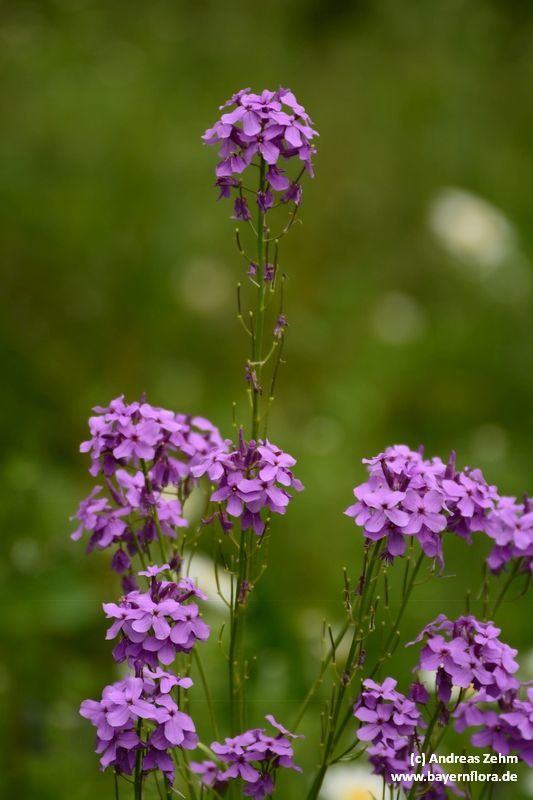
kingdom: Plantae
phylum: Tracheophyta
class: Magnoliopsida
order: Brassicales
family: Brassicaceae
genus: Matthiola
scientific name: Matthiola incana
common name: Hoary stock
